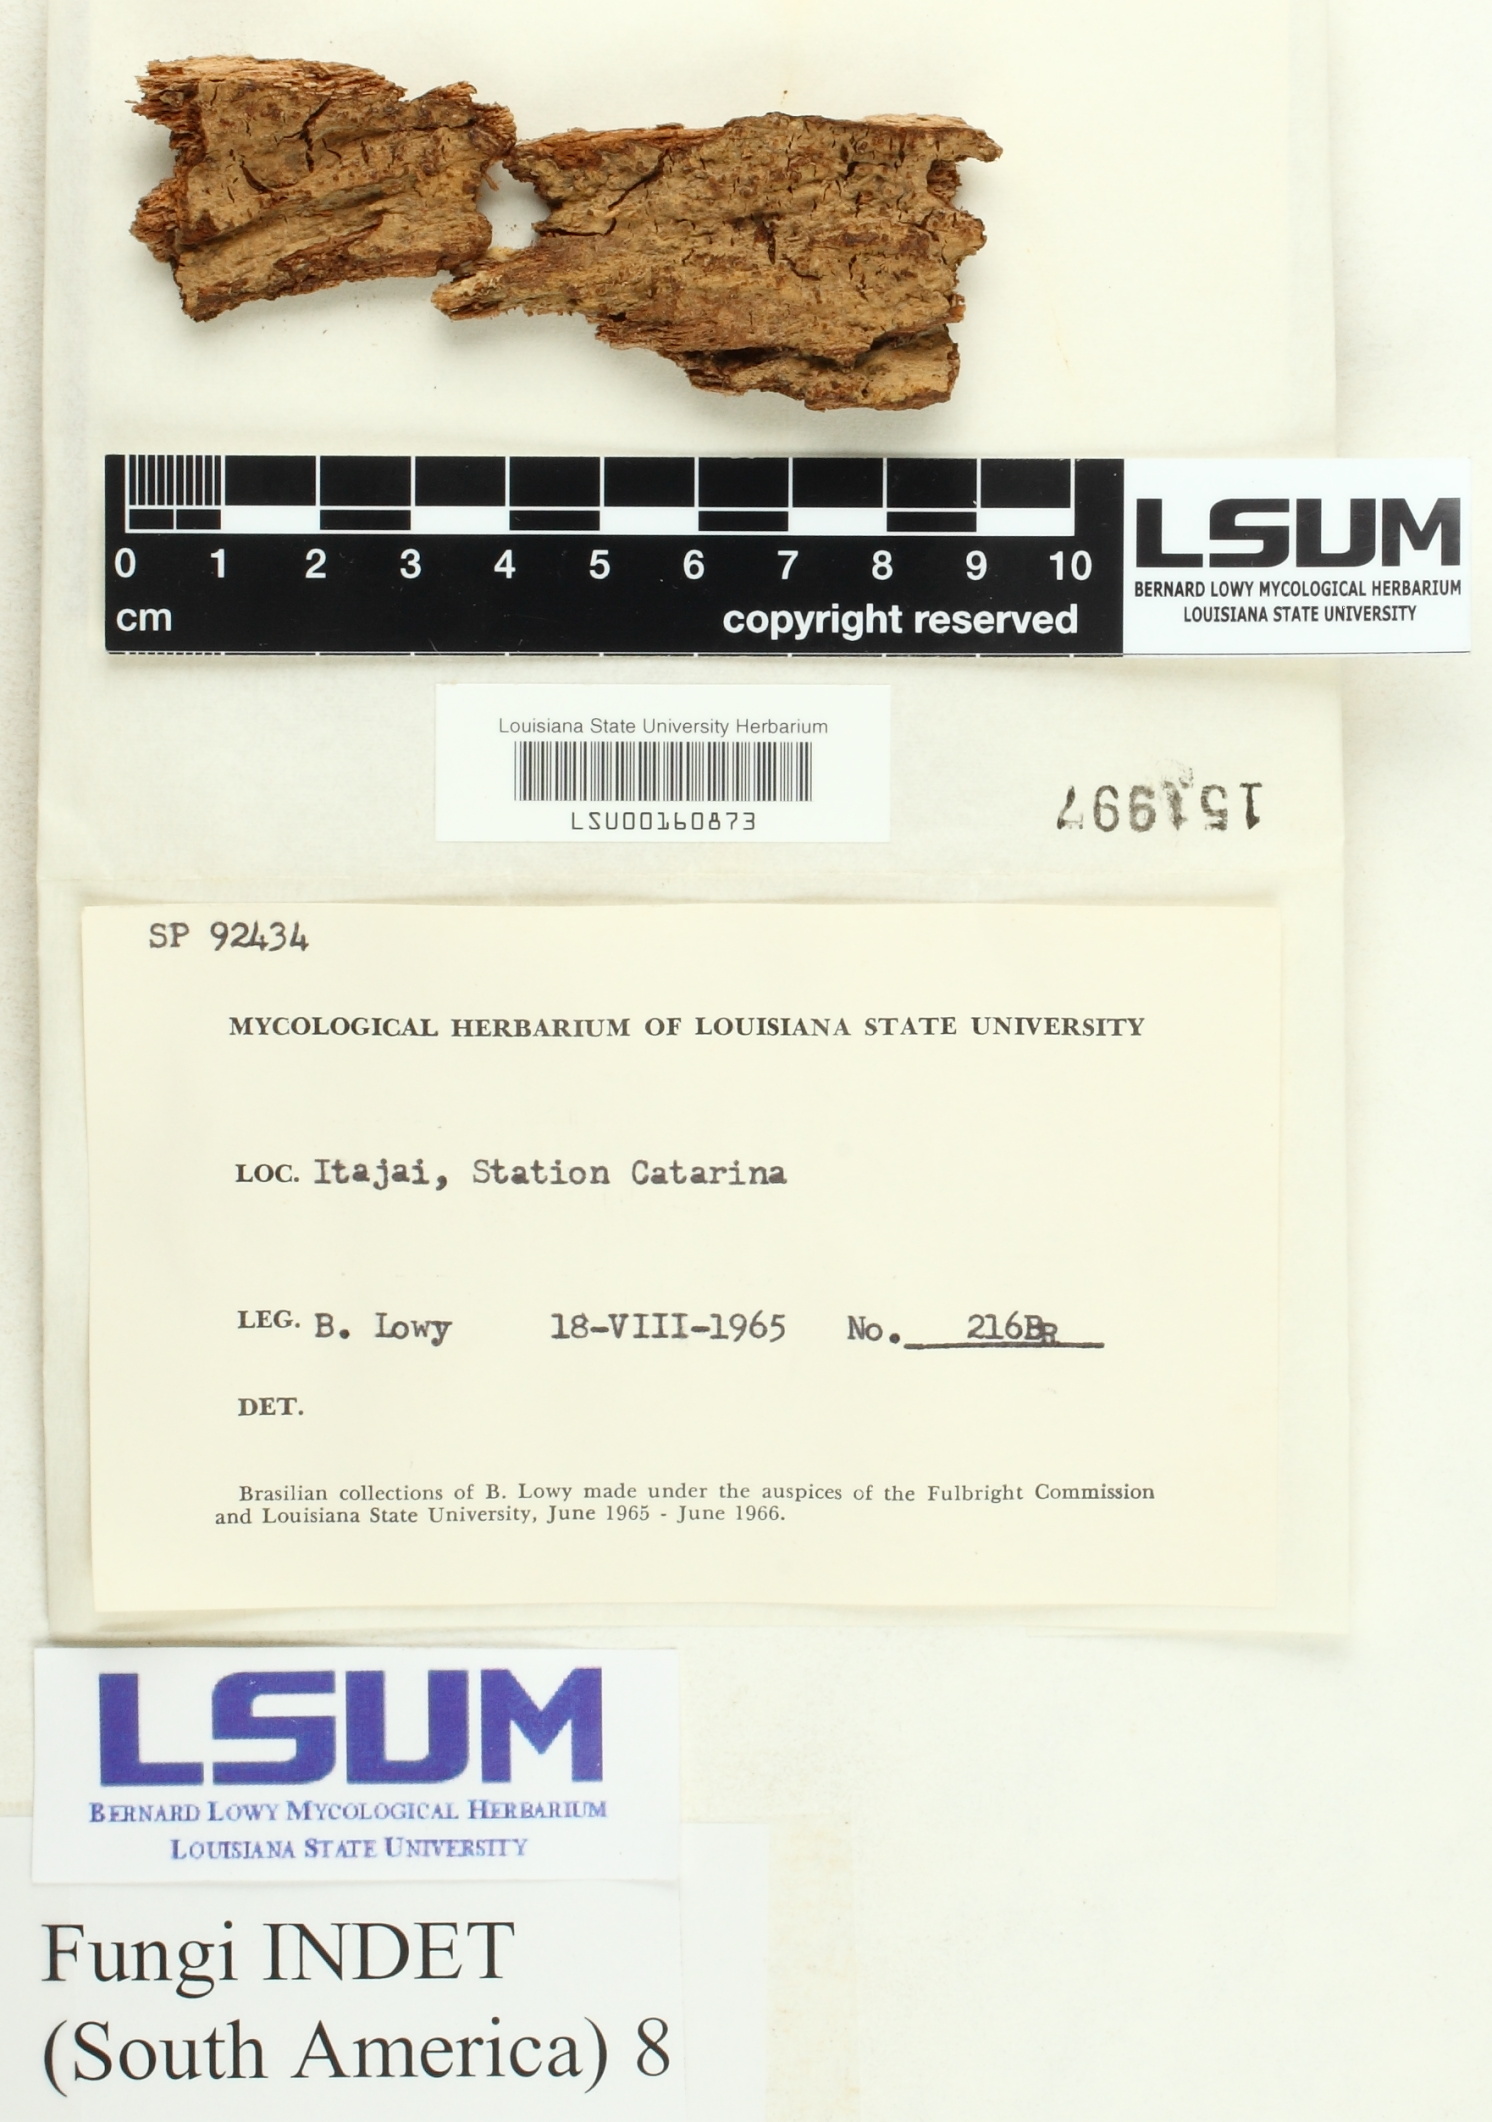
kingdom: Fungi
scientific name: Fungi
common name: Fungi
